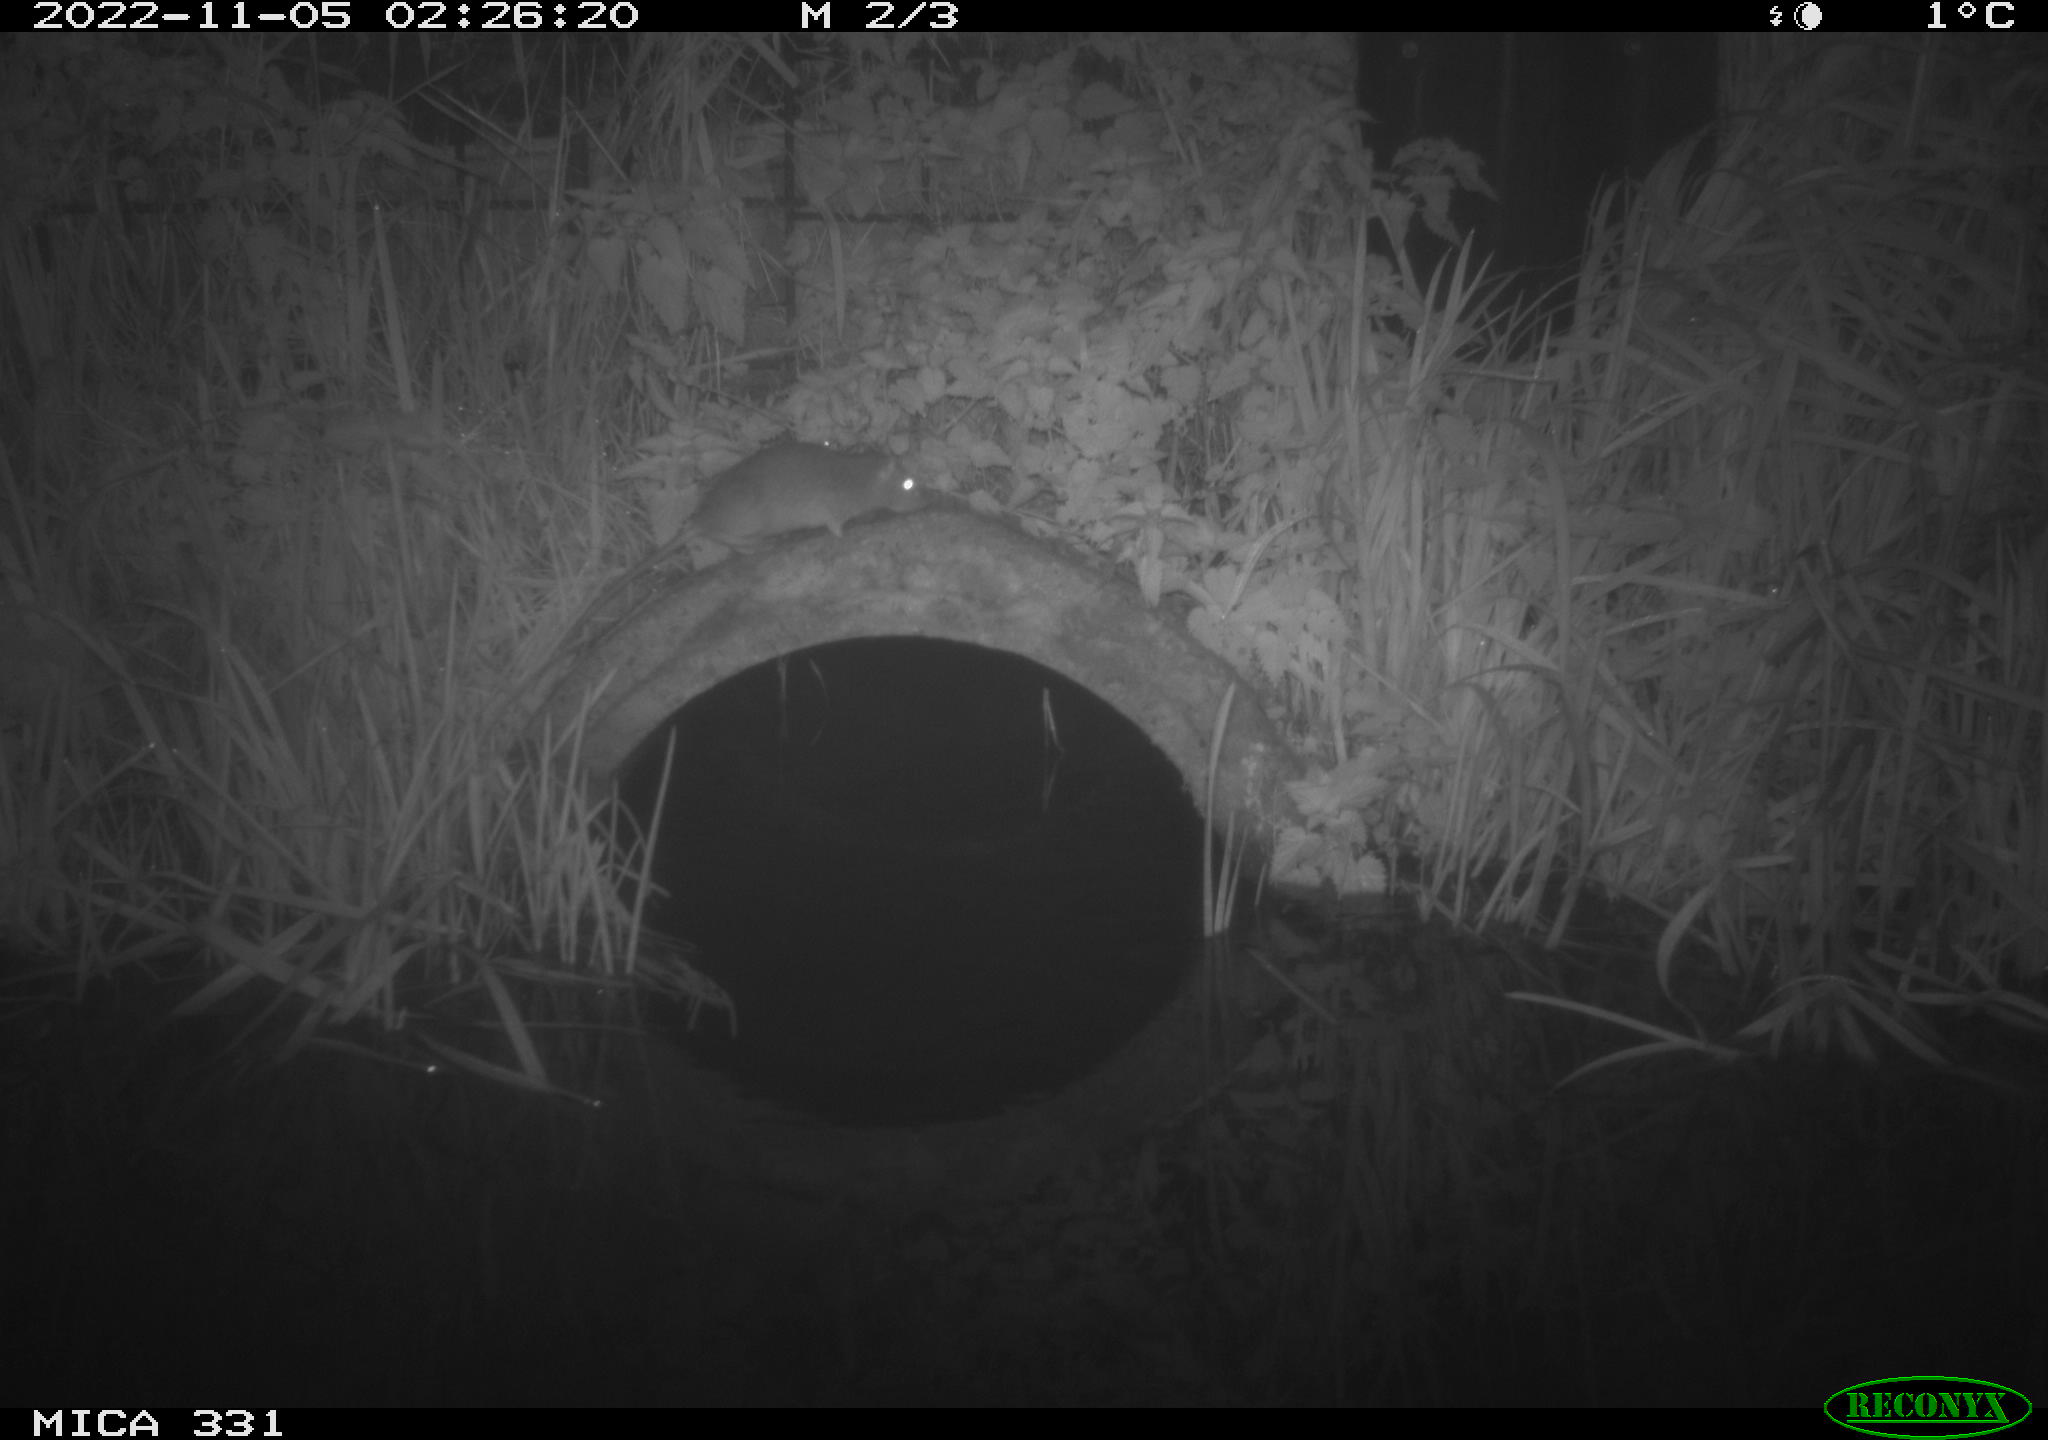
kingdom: Animalia
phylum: Chordata
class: Mammalia
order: Rodentia
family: Muridae
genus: Rattus
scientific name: Rattus norvegicus
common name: Brown rat
